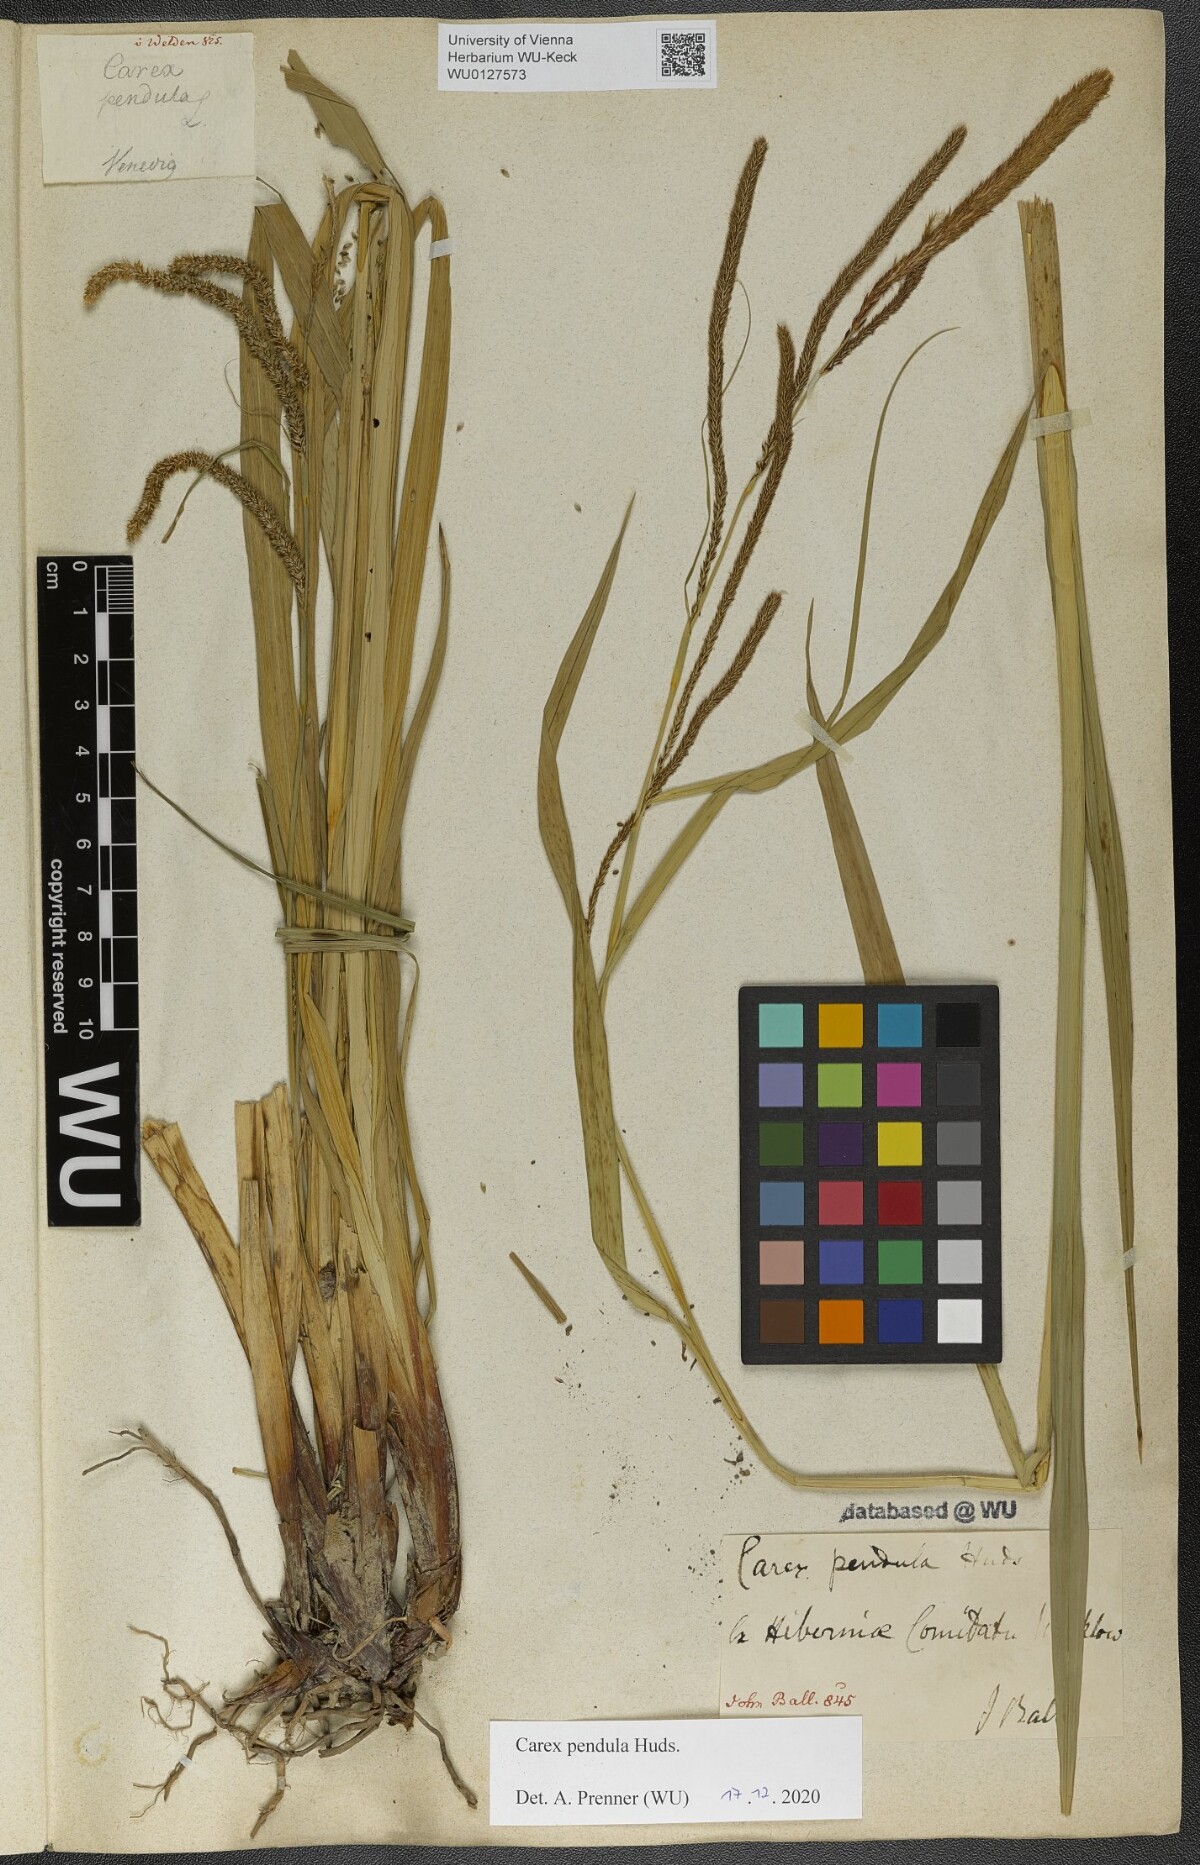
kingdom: Plantae
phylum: Tracheophyta
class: Liliopsida
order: Poales
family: Cyperaceae
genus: Carex
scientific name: Carex pendula
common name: Pendulous sedge
